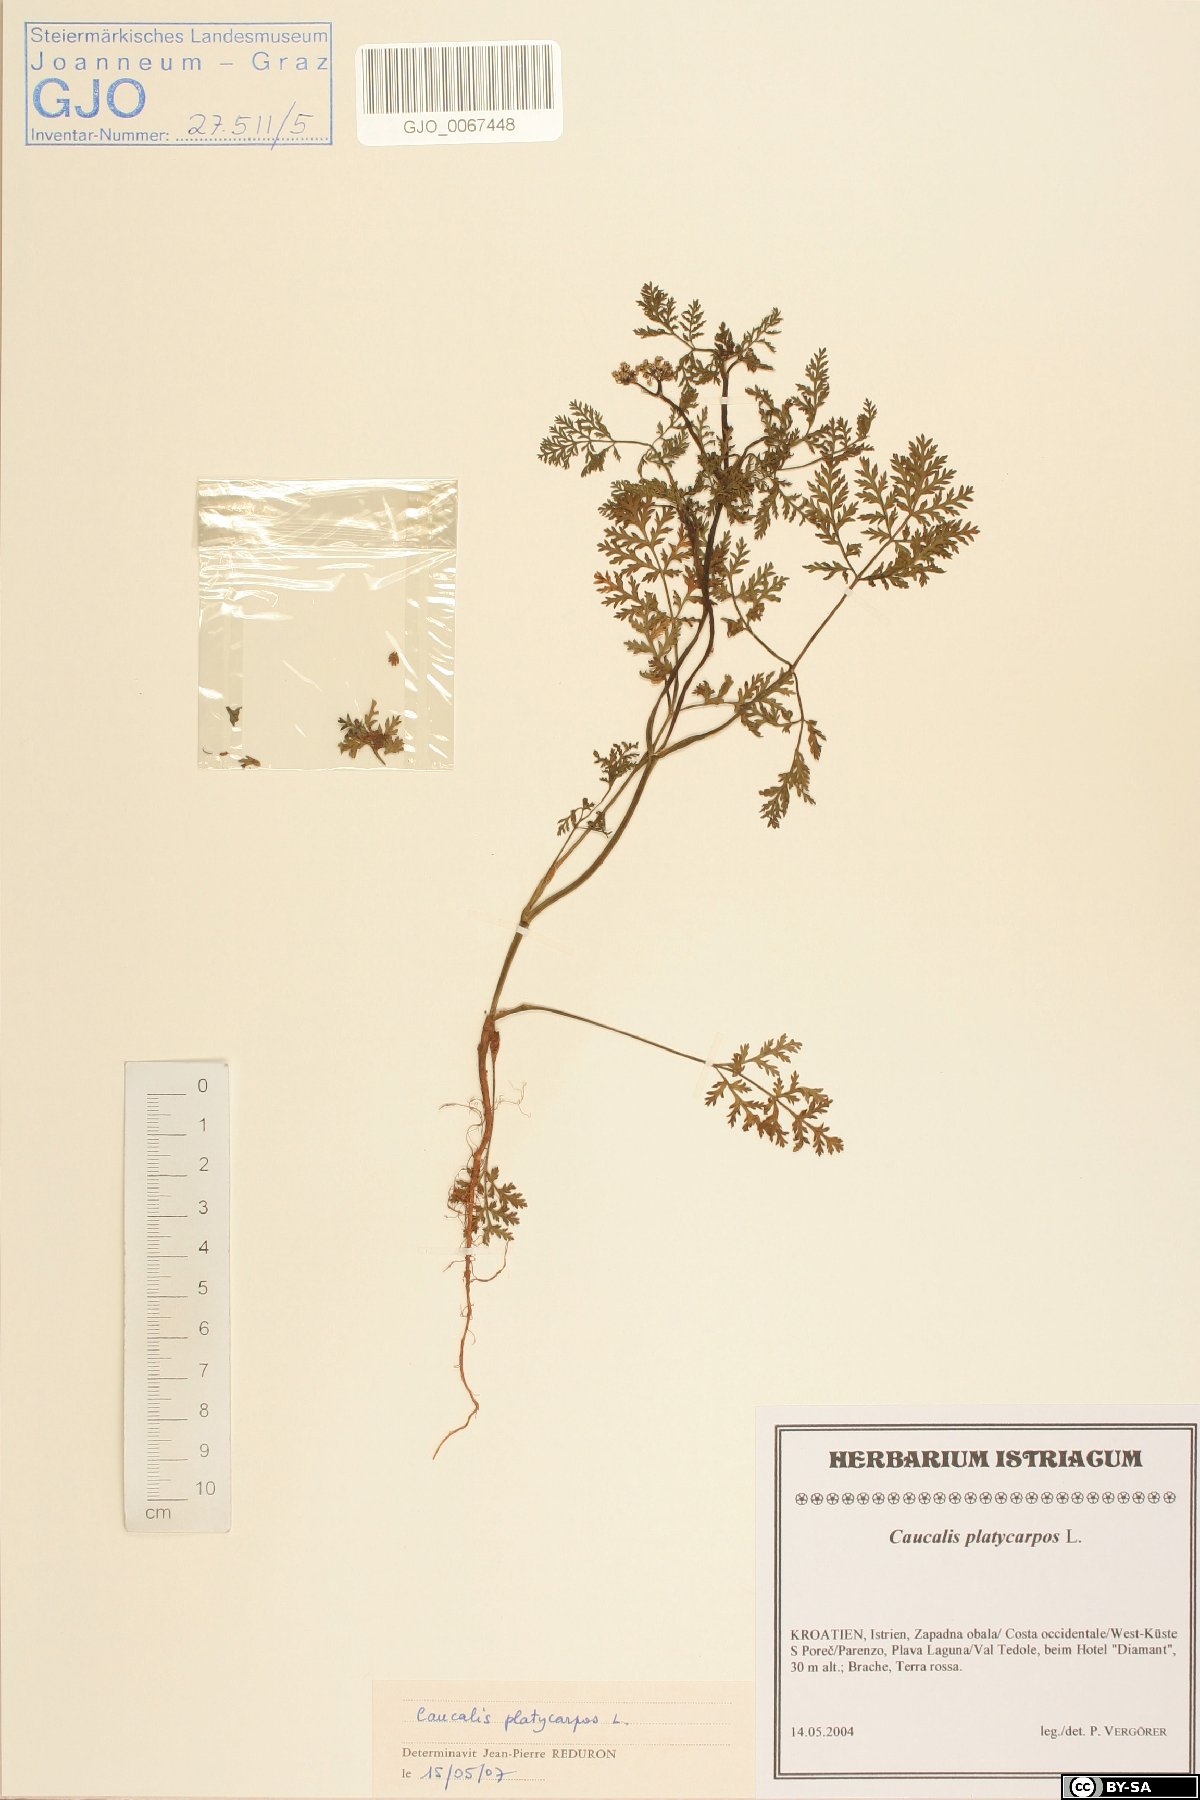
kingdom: Plantae
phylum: Tracheophyta
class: Magnoliopsida
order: Apiales
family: Apiaceae
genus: Caucalis
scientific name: Caucalis platycarpos
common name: Small bur-parsley
